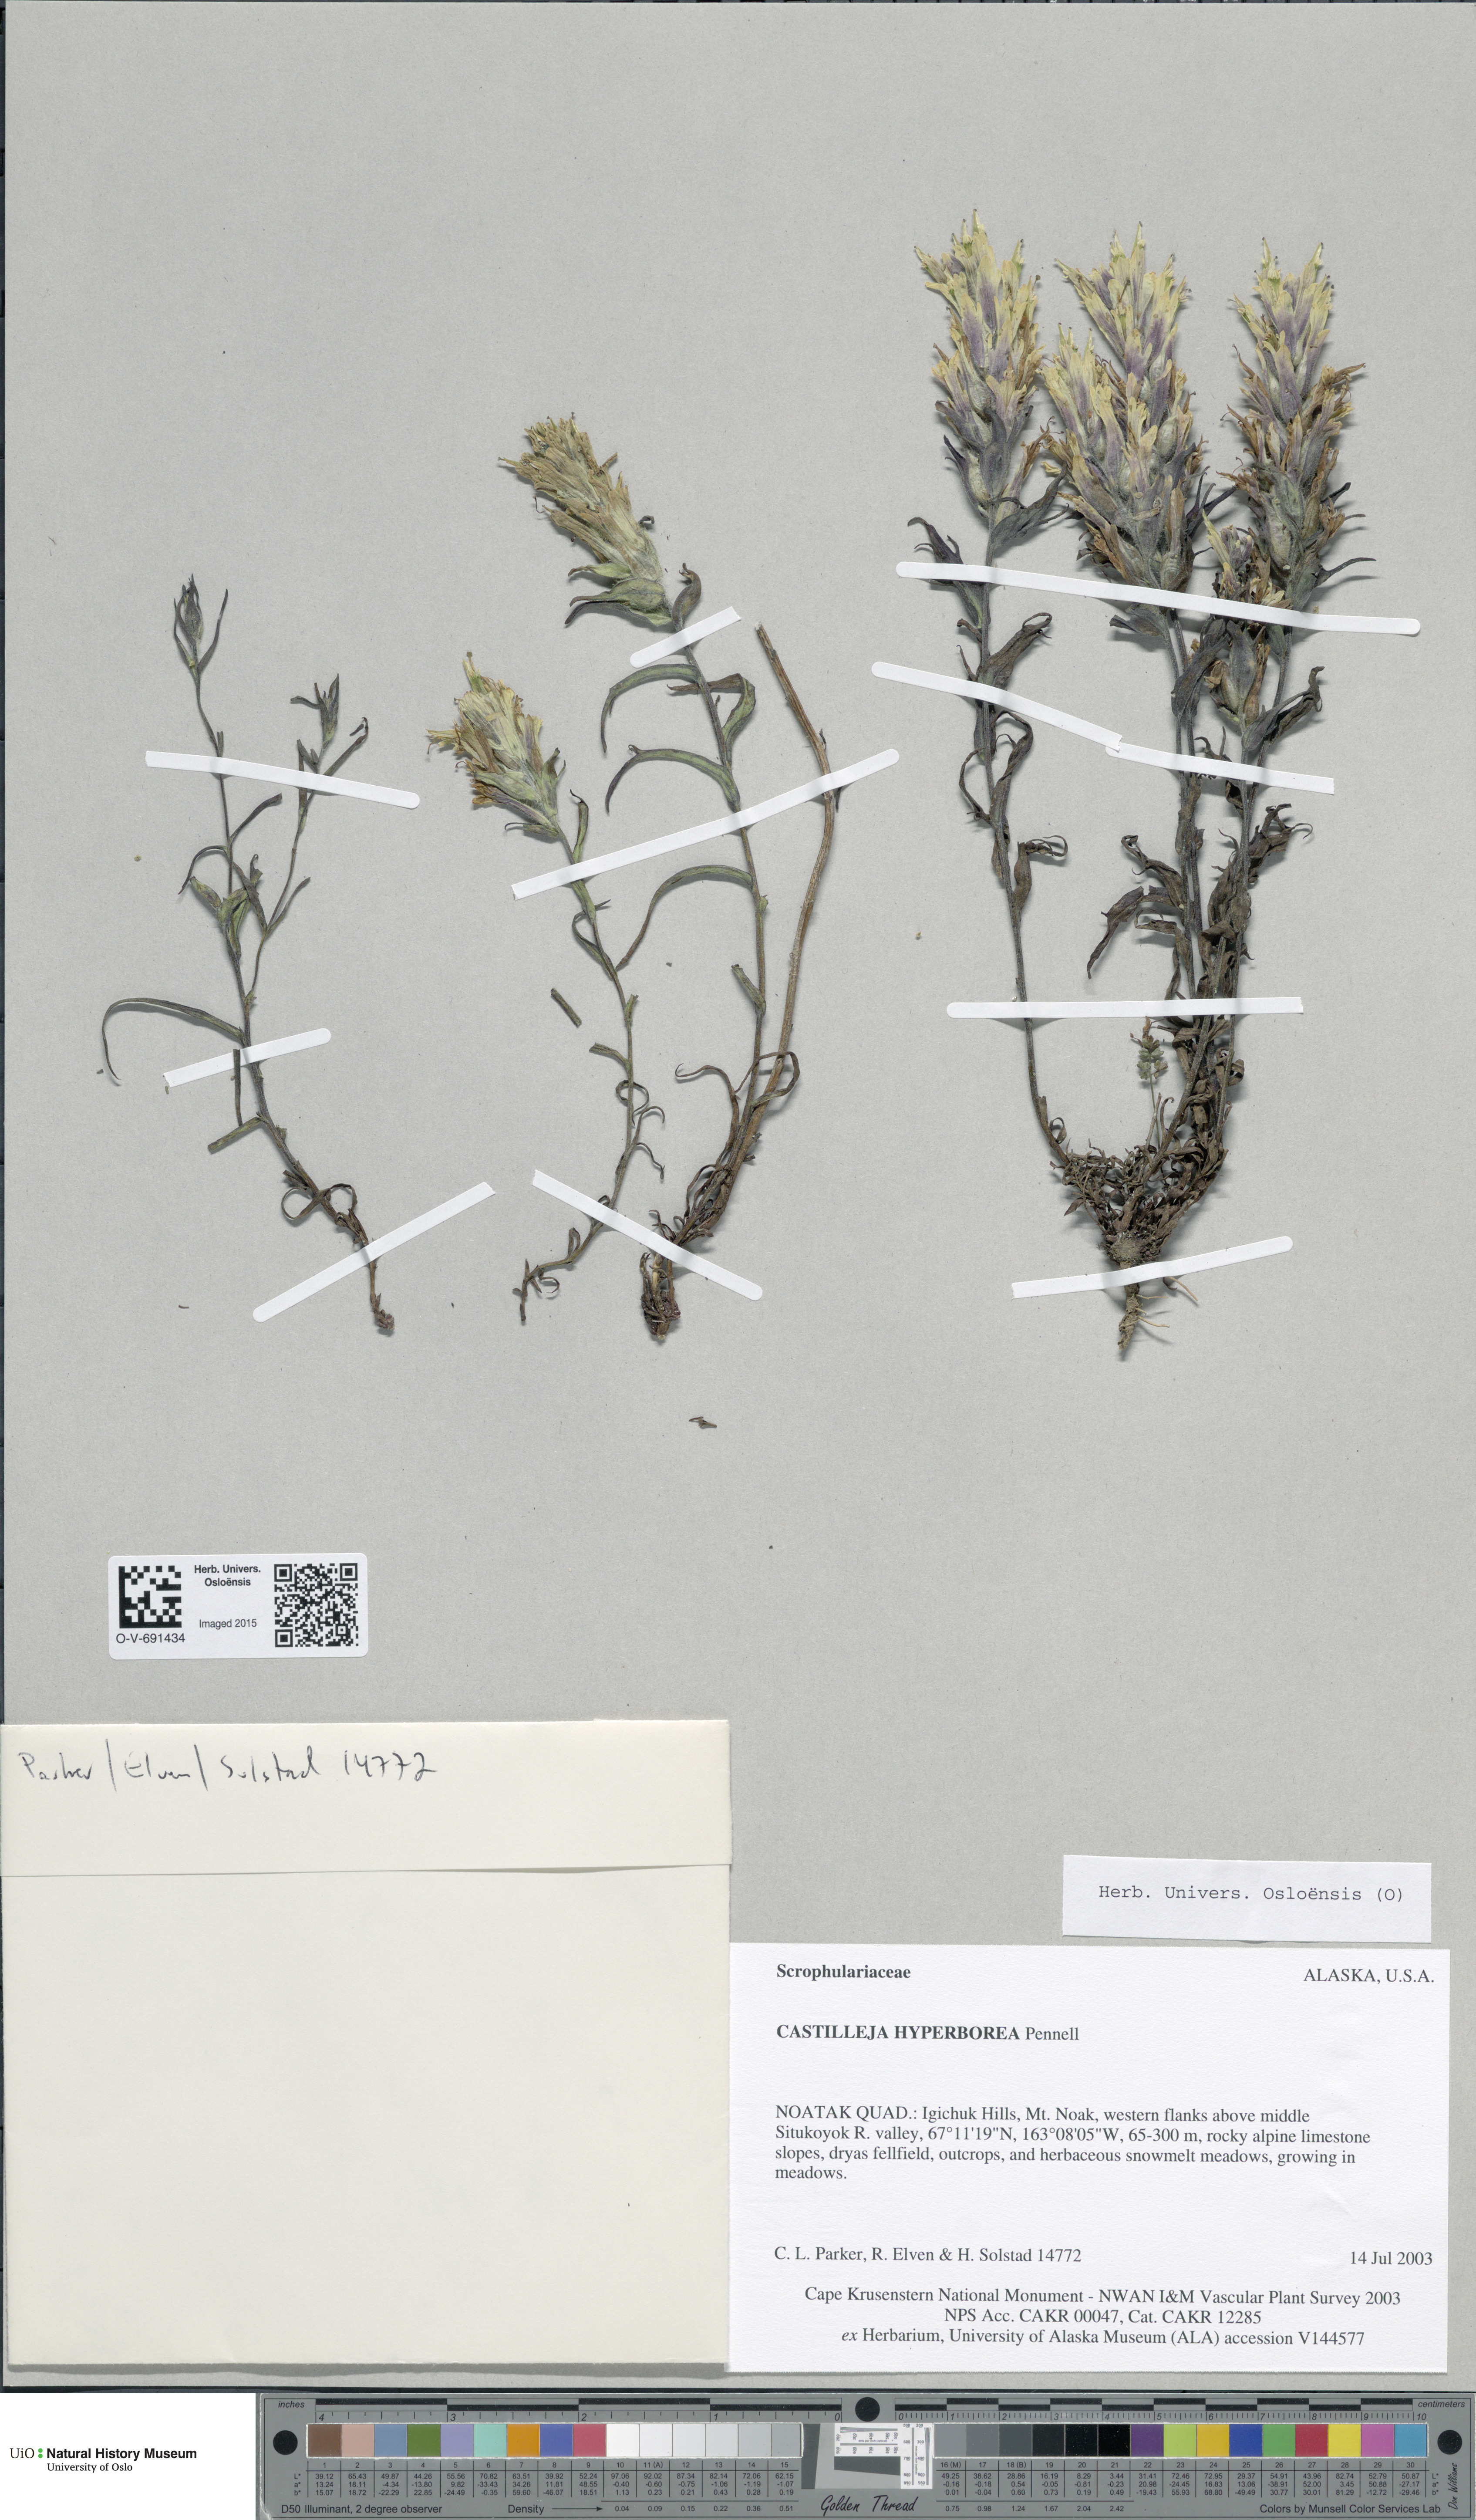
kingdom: Plantae
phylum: Tracheophyta
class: Magnoliopsida
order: Lamiales
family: Orobanchaceae
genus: Castilleja
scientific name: Castilleja hyperborea
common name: Northern paintbrush
